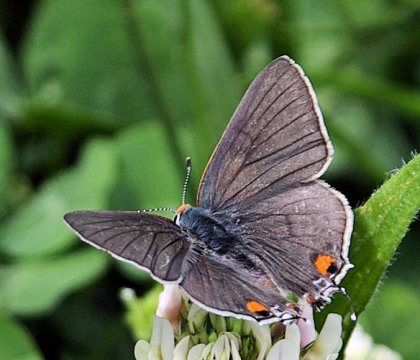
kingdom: Animalia
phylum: Arthropoda
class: Insecta
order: Lepidoptera
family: Lycaenidae
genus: Strymon
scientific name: Strymon melinus
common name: Gray Hairstreak
